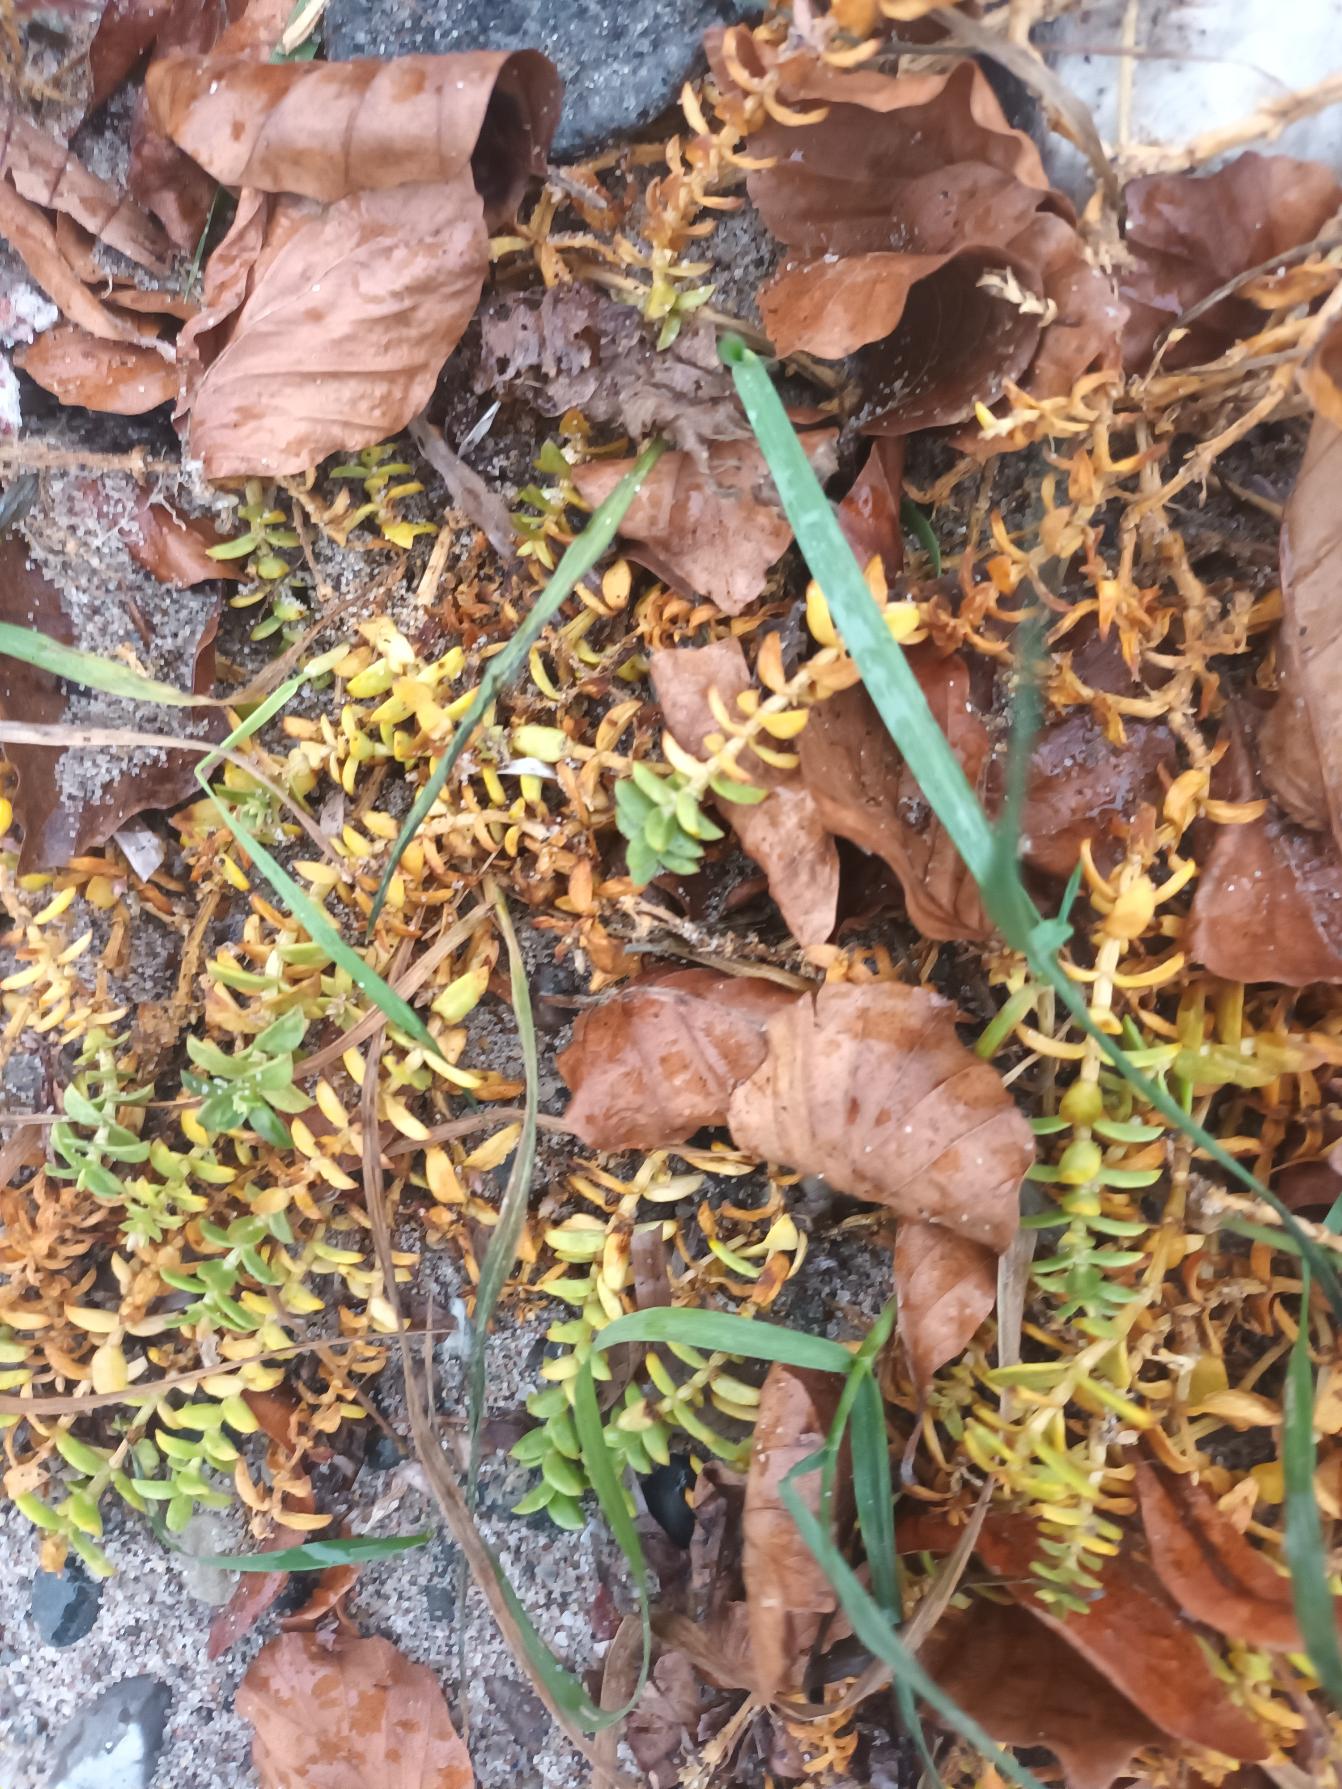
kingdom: Plantae
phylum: Tracheophyta
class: Magnoliopsida
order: Caryophyllales
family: Caryophyllaceae
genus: Honckenya
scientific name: Honckenya peploides
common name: Strandarve
